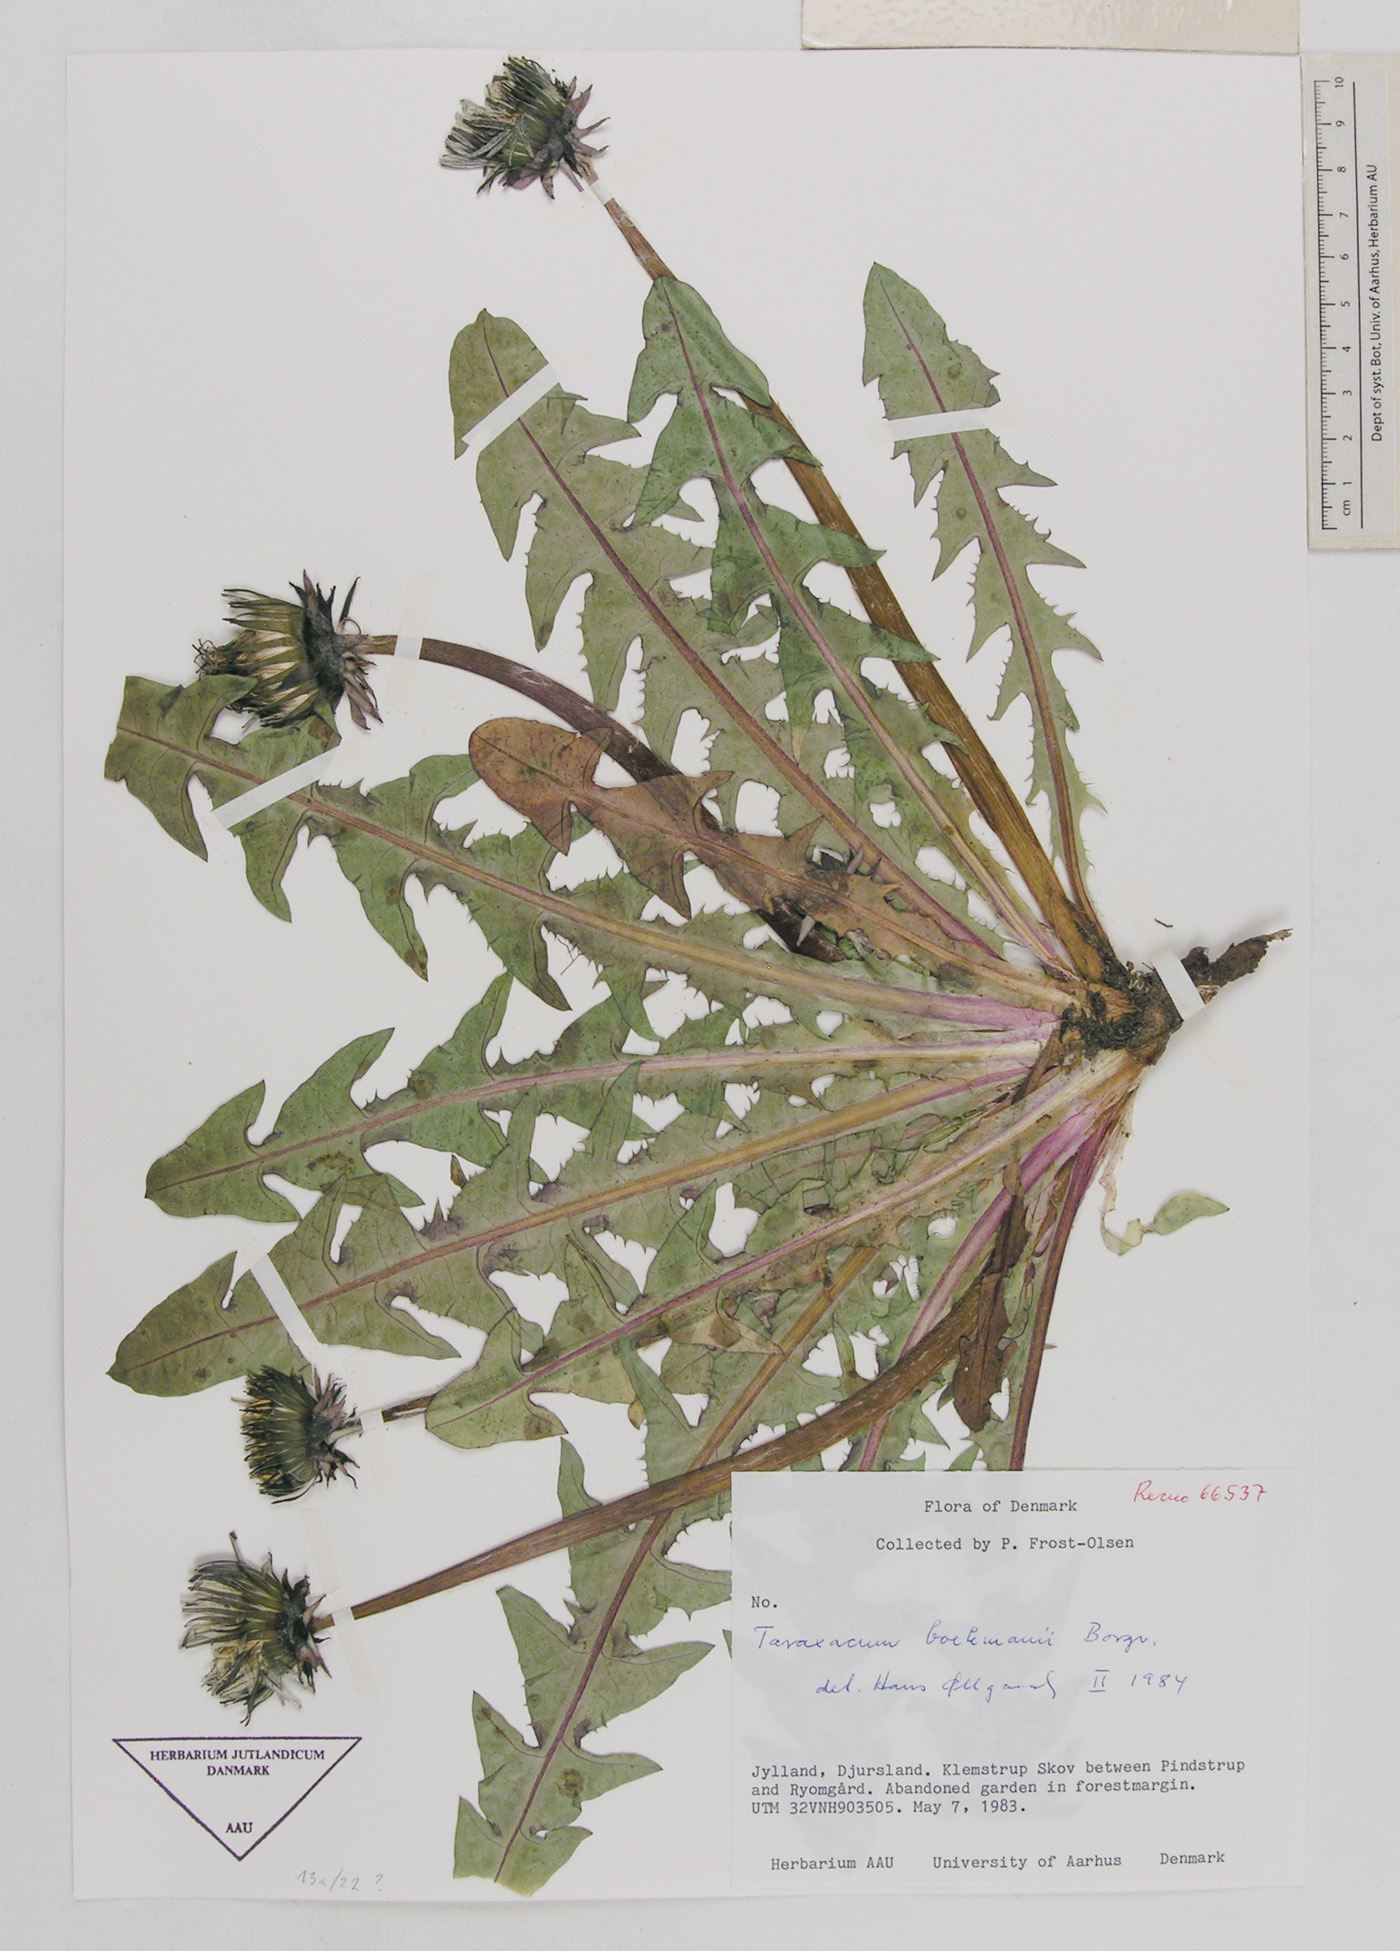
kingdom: Plantae
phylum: Tracheophyta
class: Magnoliopsida
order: Asterales
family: Asteraceae
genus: Taraxacum
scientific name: Taraxacum boekmanii
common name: Bökman's dandelion
